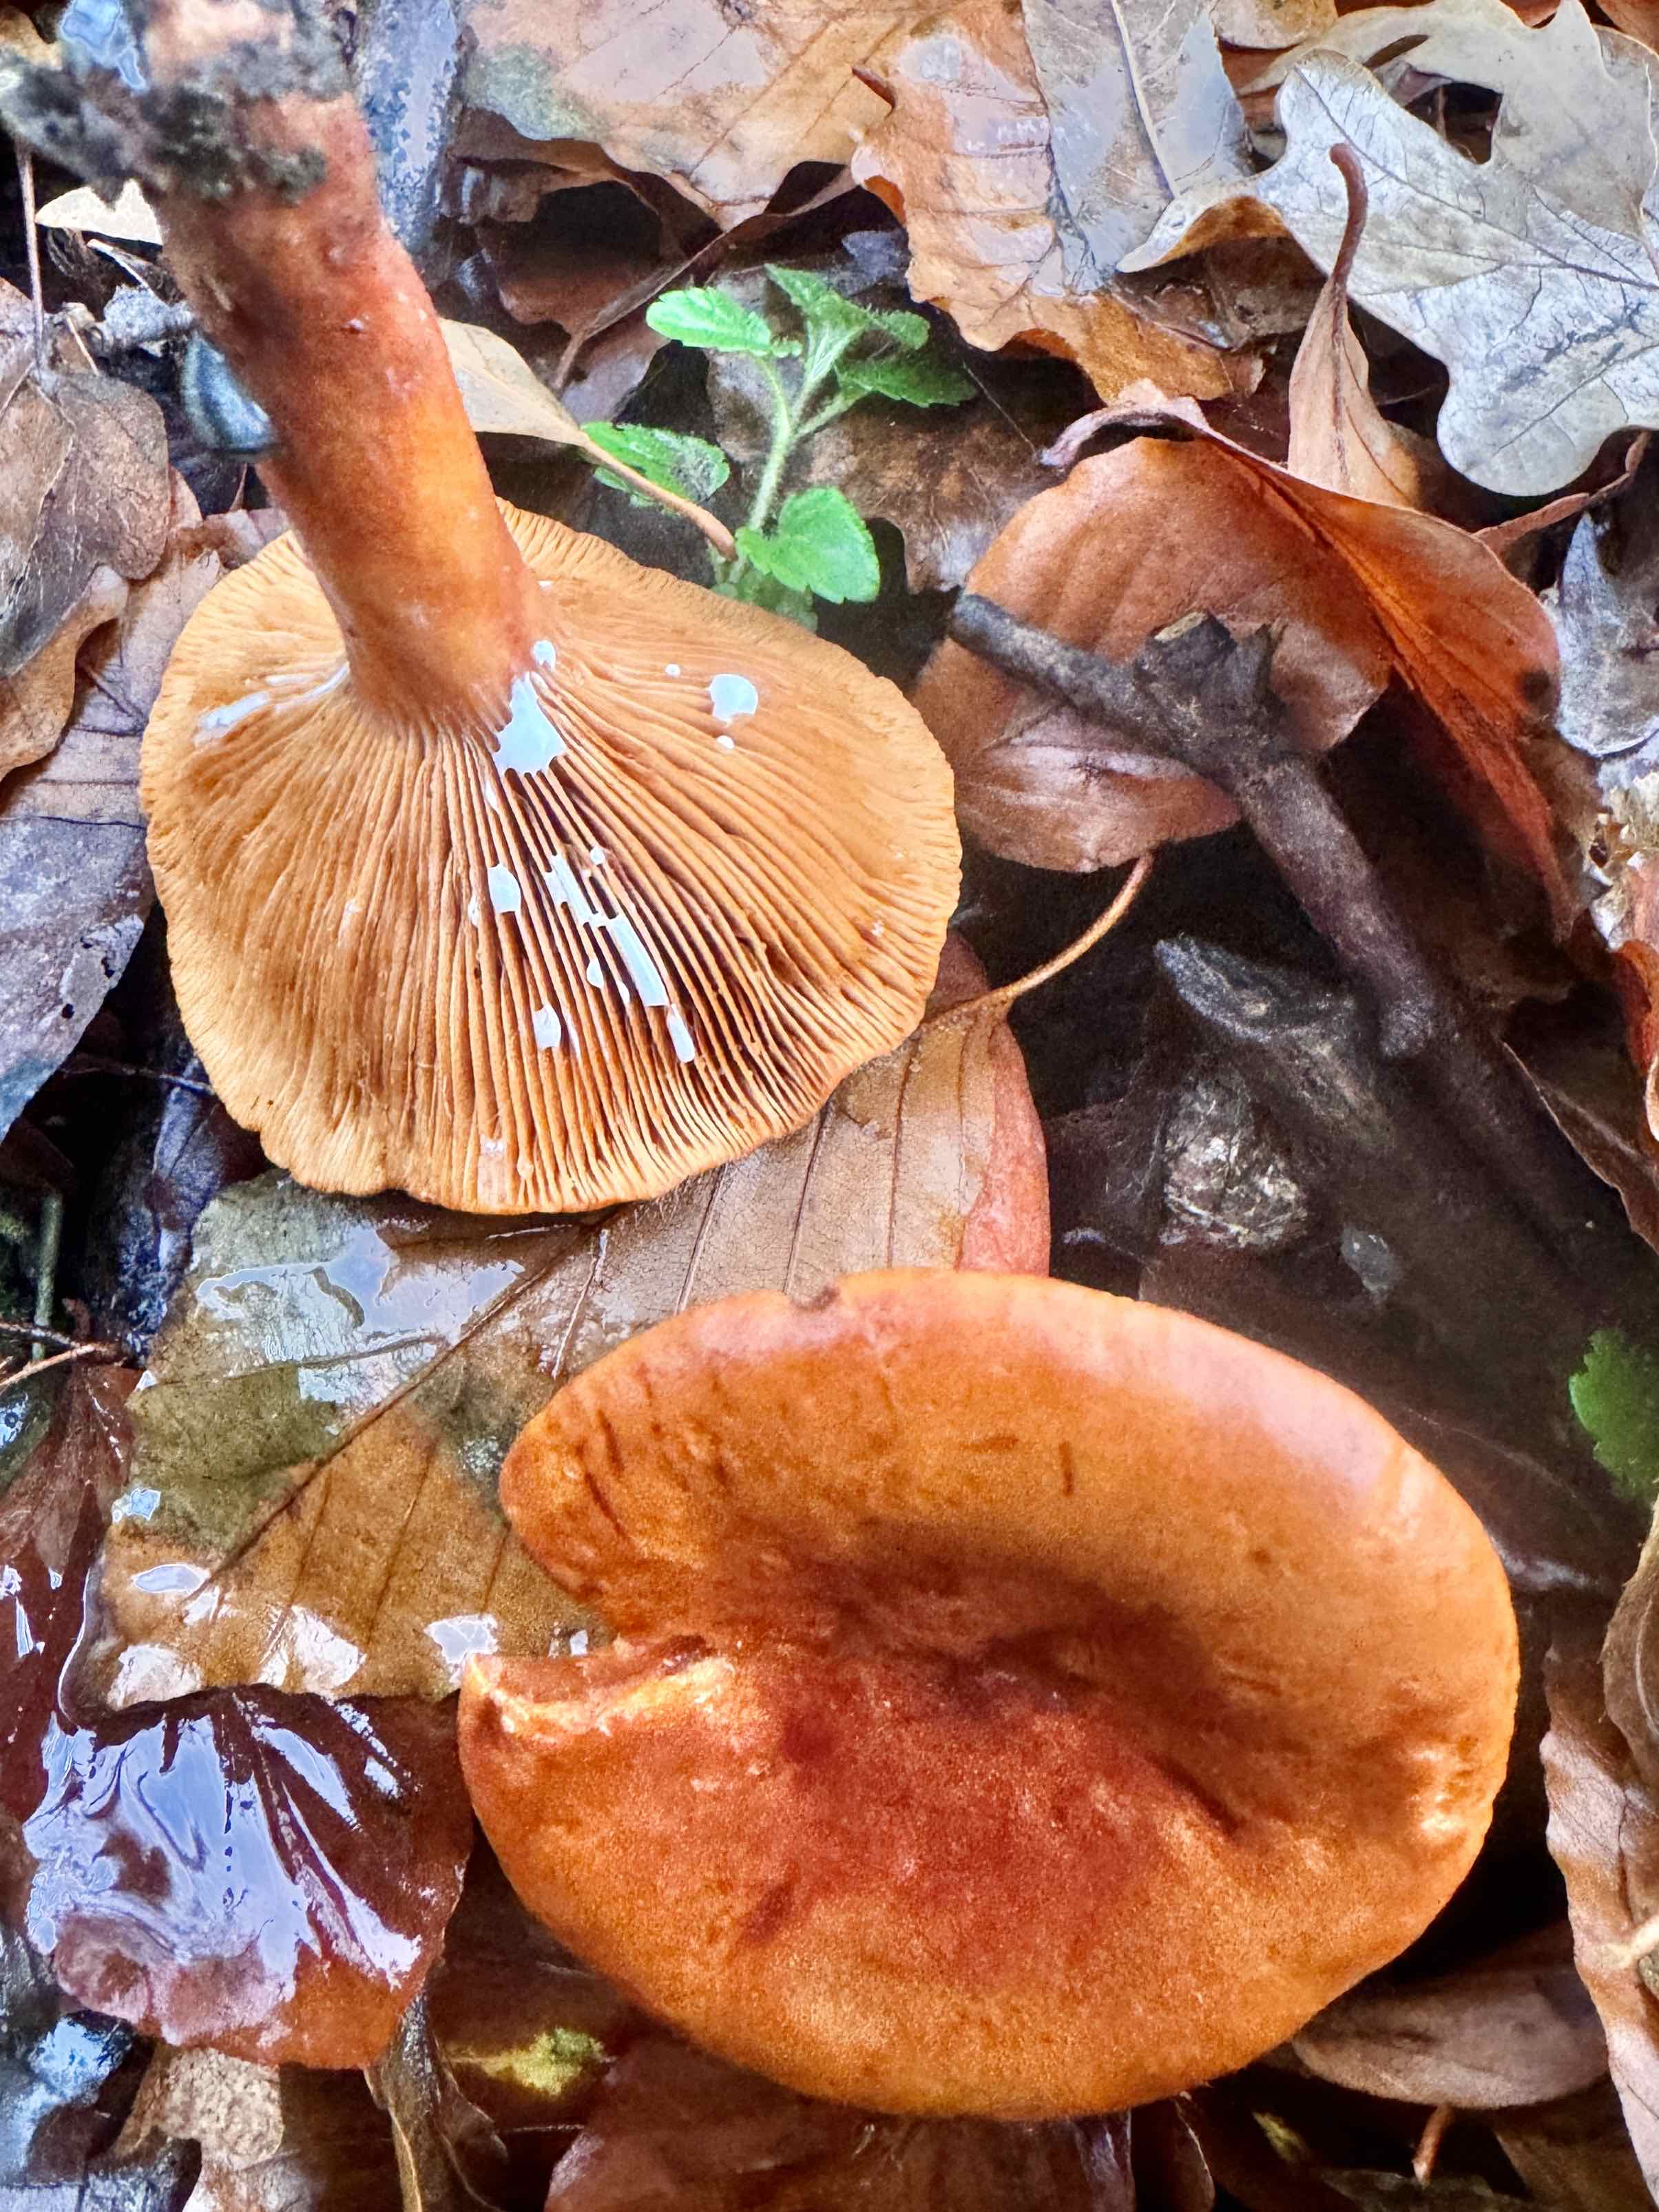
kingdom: Fungi
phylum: Basidiomycota
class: Agaricomycetes
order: Russulales
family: Russulaceae
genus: Lactarius
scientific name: Lactarius fulvissimus
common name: ræve-mælkehat
